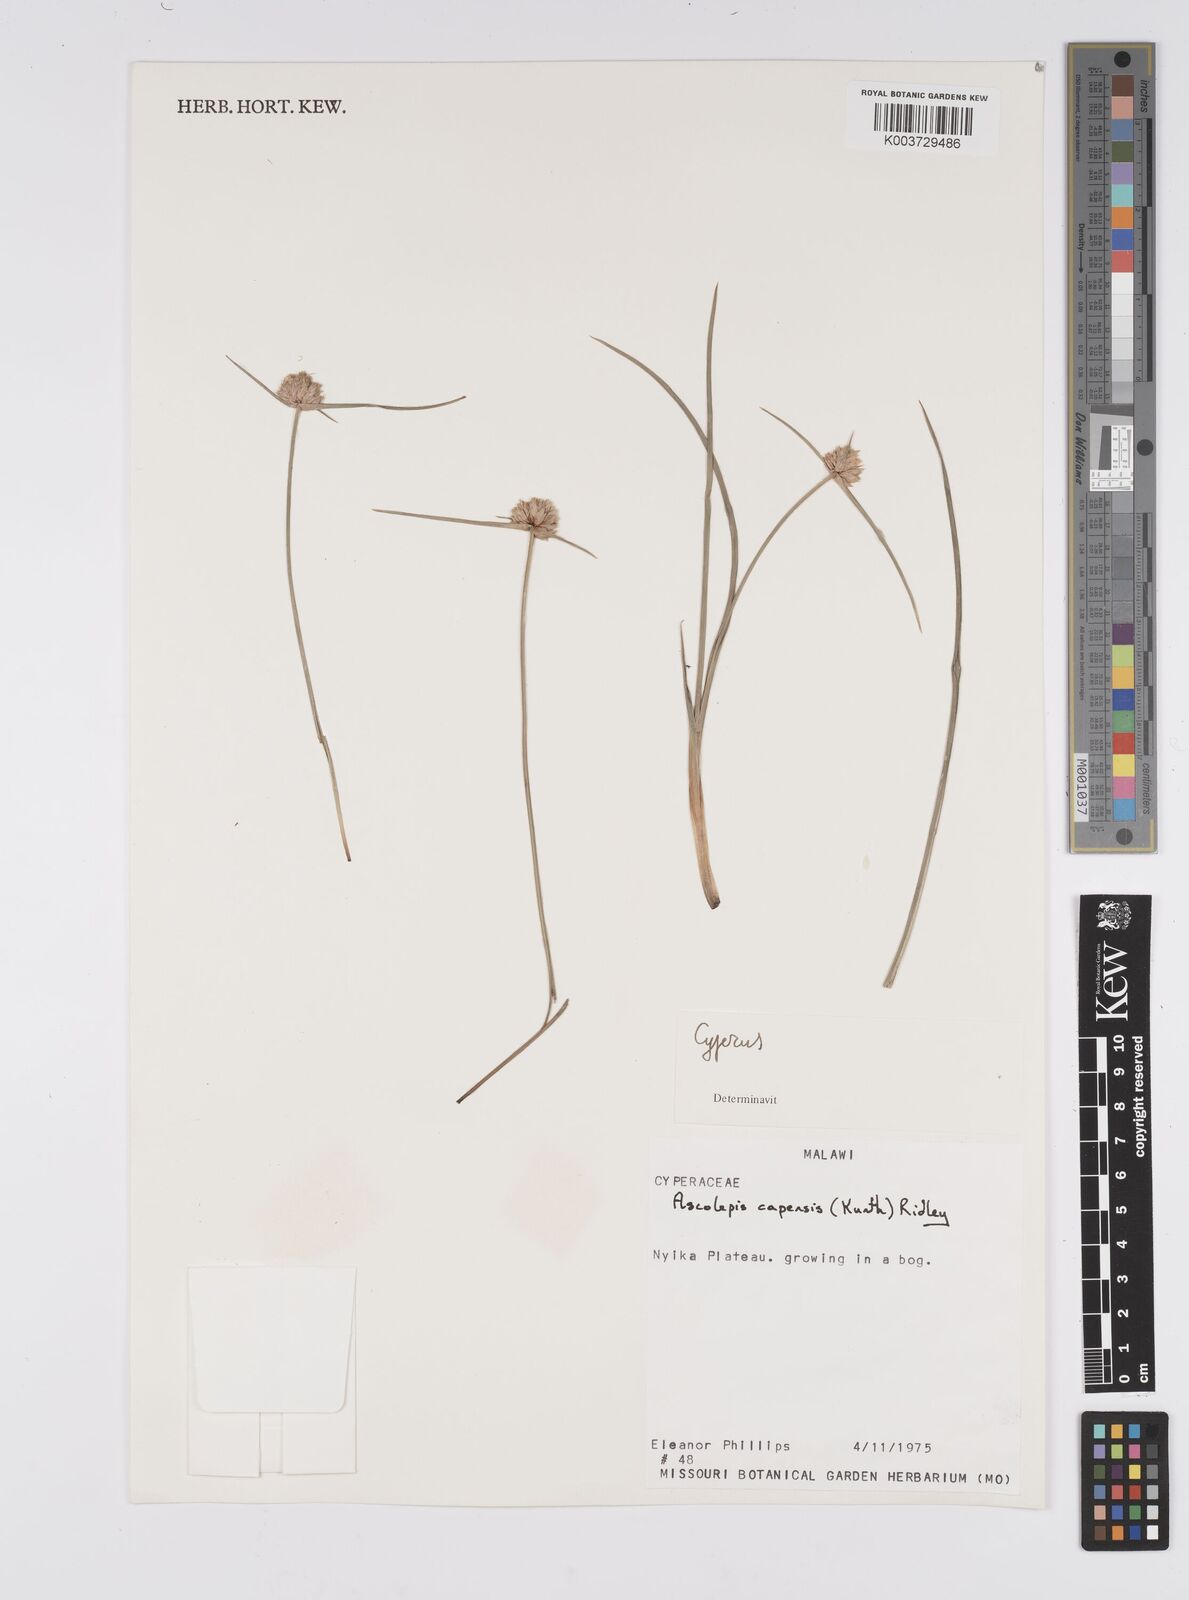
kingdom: Plantae
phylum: Tracheophyta
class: Liliopsida
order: Poales
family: Cyperaceae
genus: Cyperus
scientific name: Cyperus
